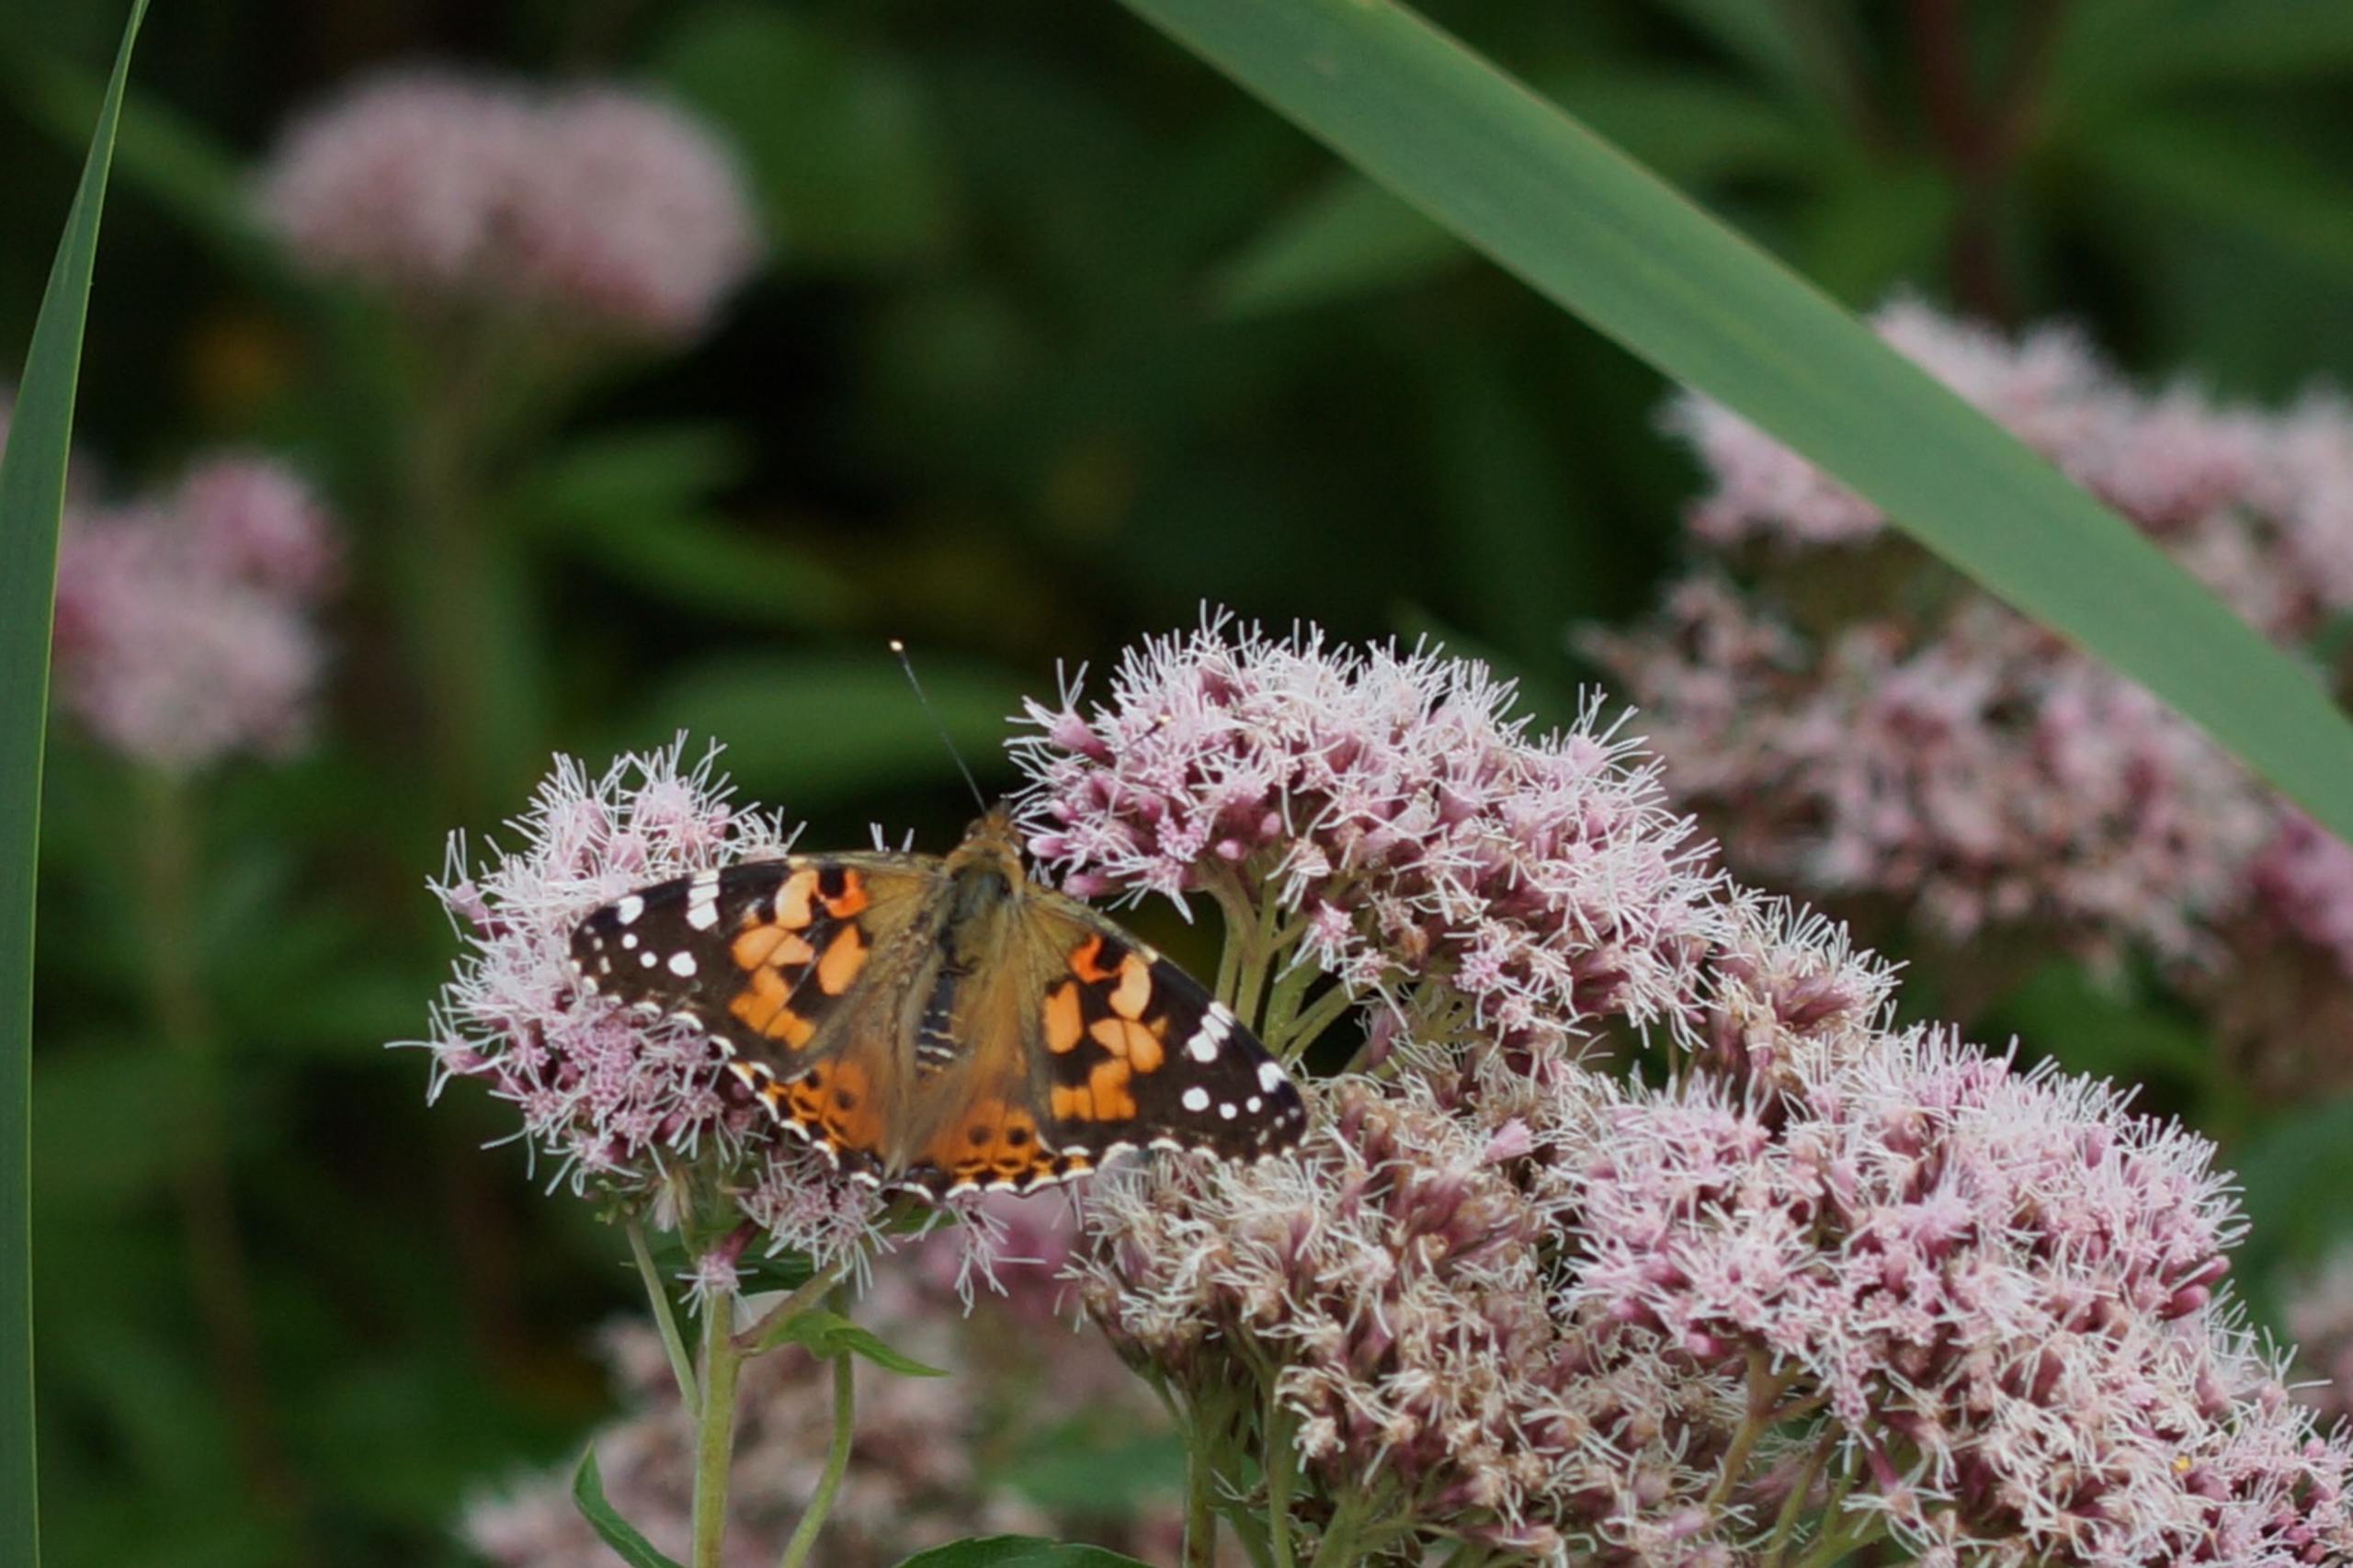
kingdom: Animalia
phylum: Arthropoda
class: Insecta
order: Lepidoptera
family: Nymphalidae
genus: Vanessa
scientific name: Vanessa cardui
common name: Tidselsommerfugl
